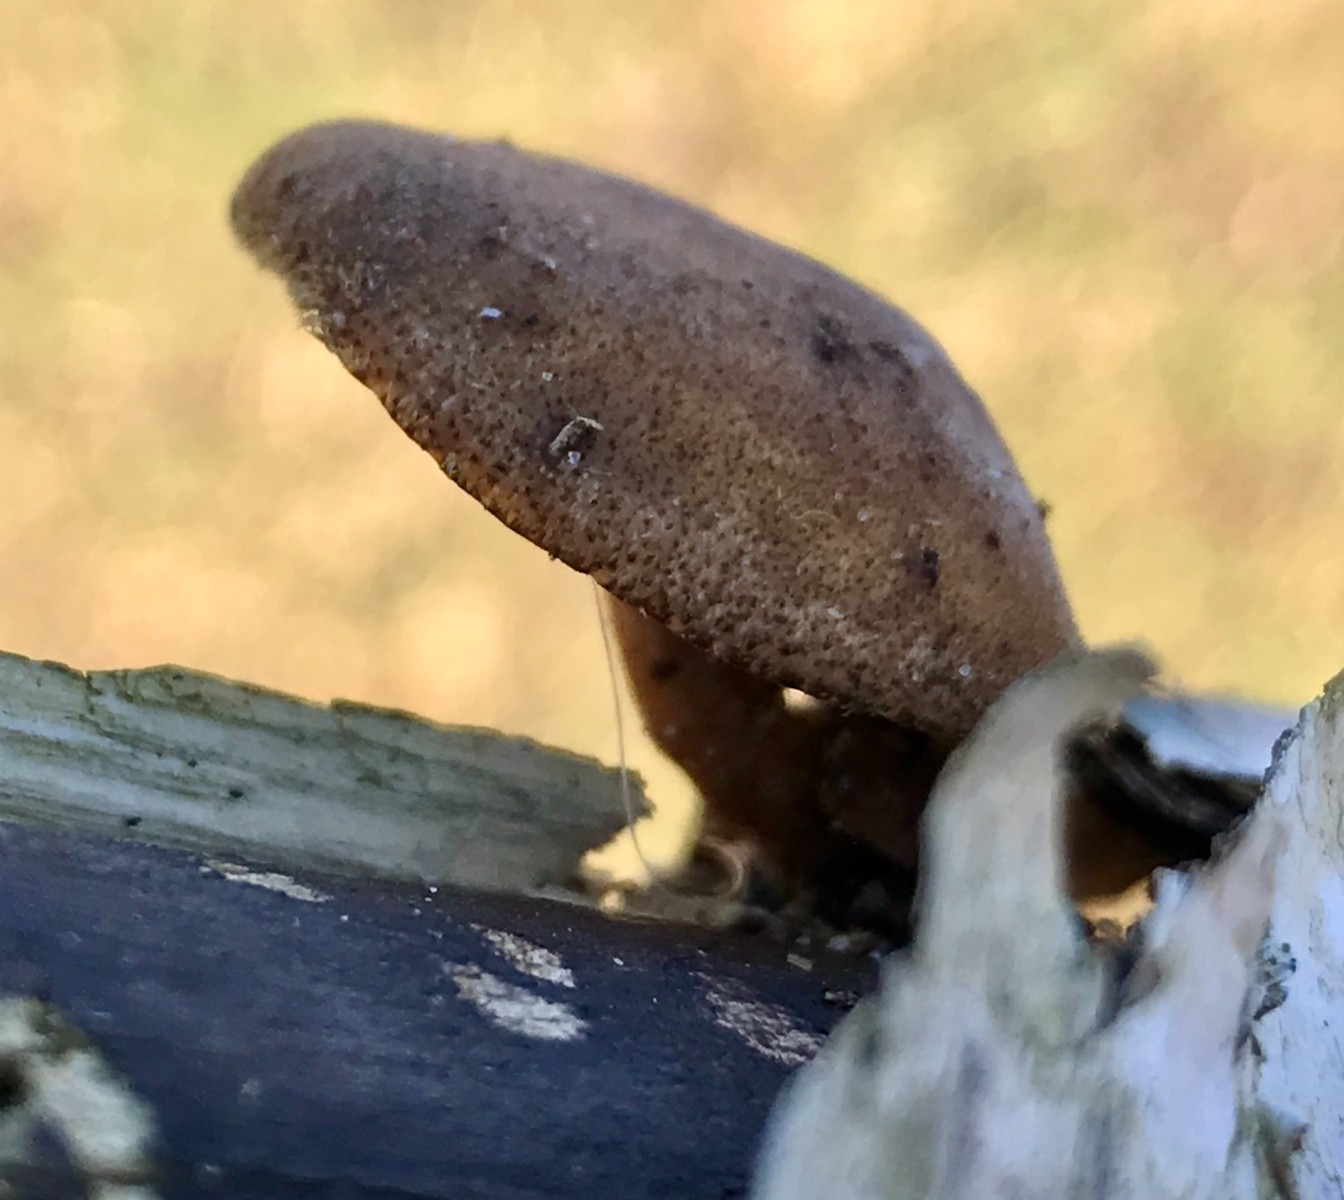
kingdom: Fungi
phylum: Basidiomycota
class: Agaricomycetes
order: Polyporales
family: Polyporaceae
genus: Lentinus
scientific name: Lentinus brumalis
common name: vinter-stilkporesvamp
